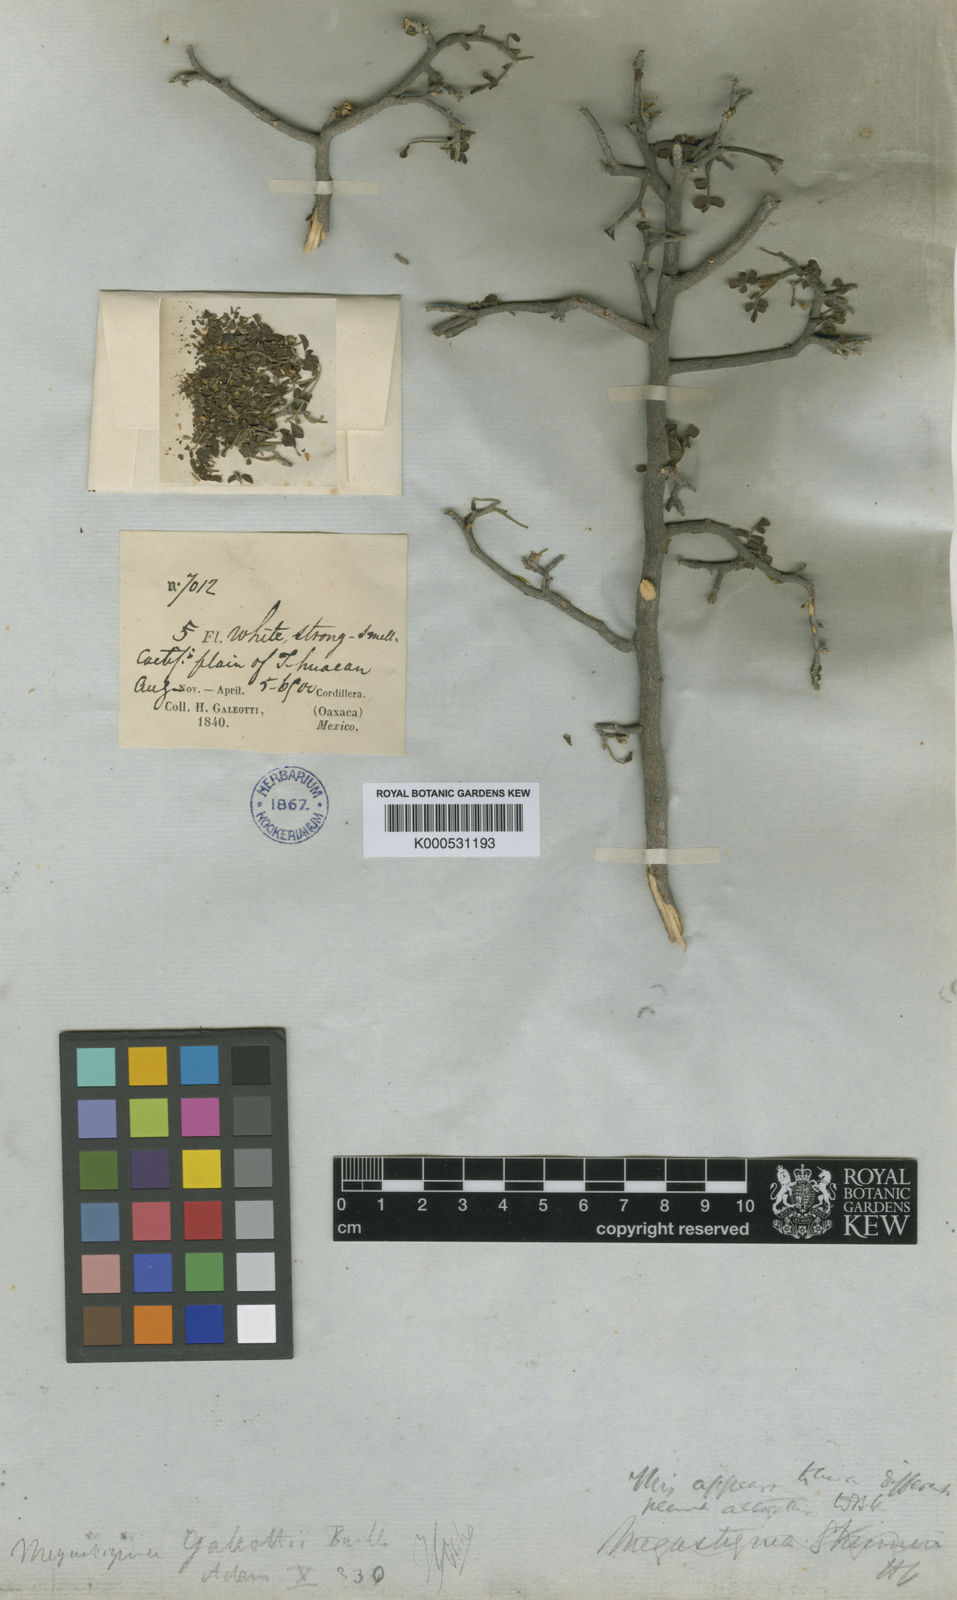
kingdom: Plantae
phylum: Tracheophyta
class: Magnoliopsida
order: Sapindales
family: Rutaceae
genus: Megastigma
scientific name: Megastigma galeottii
